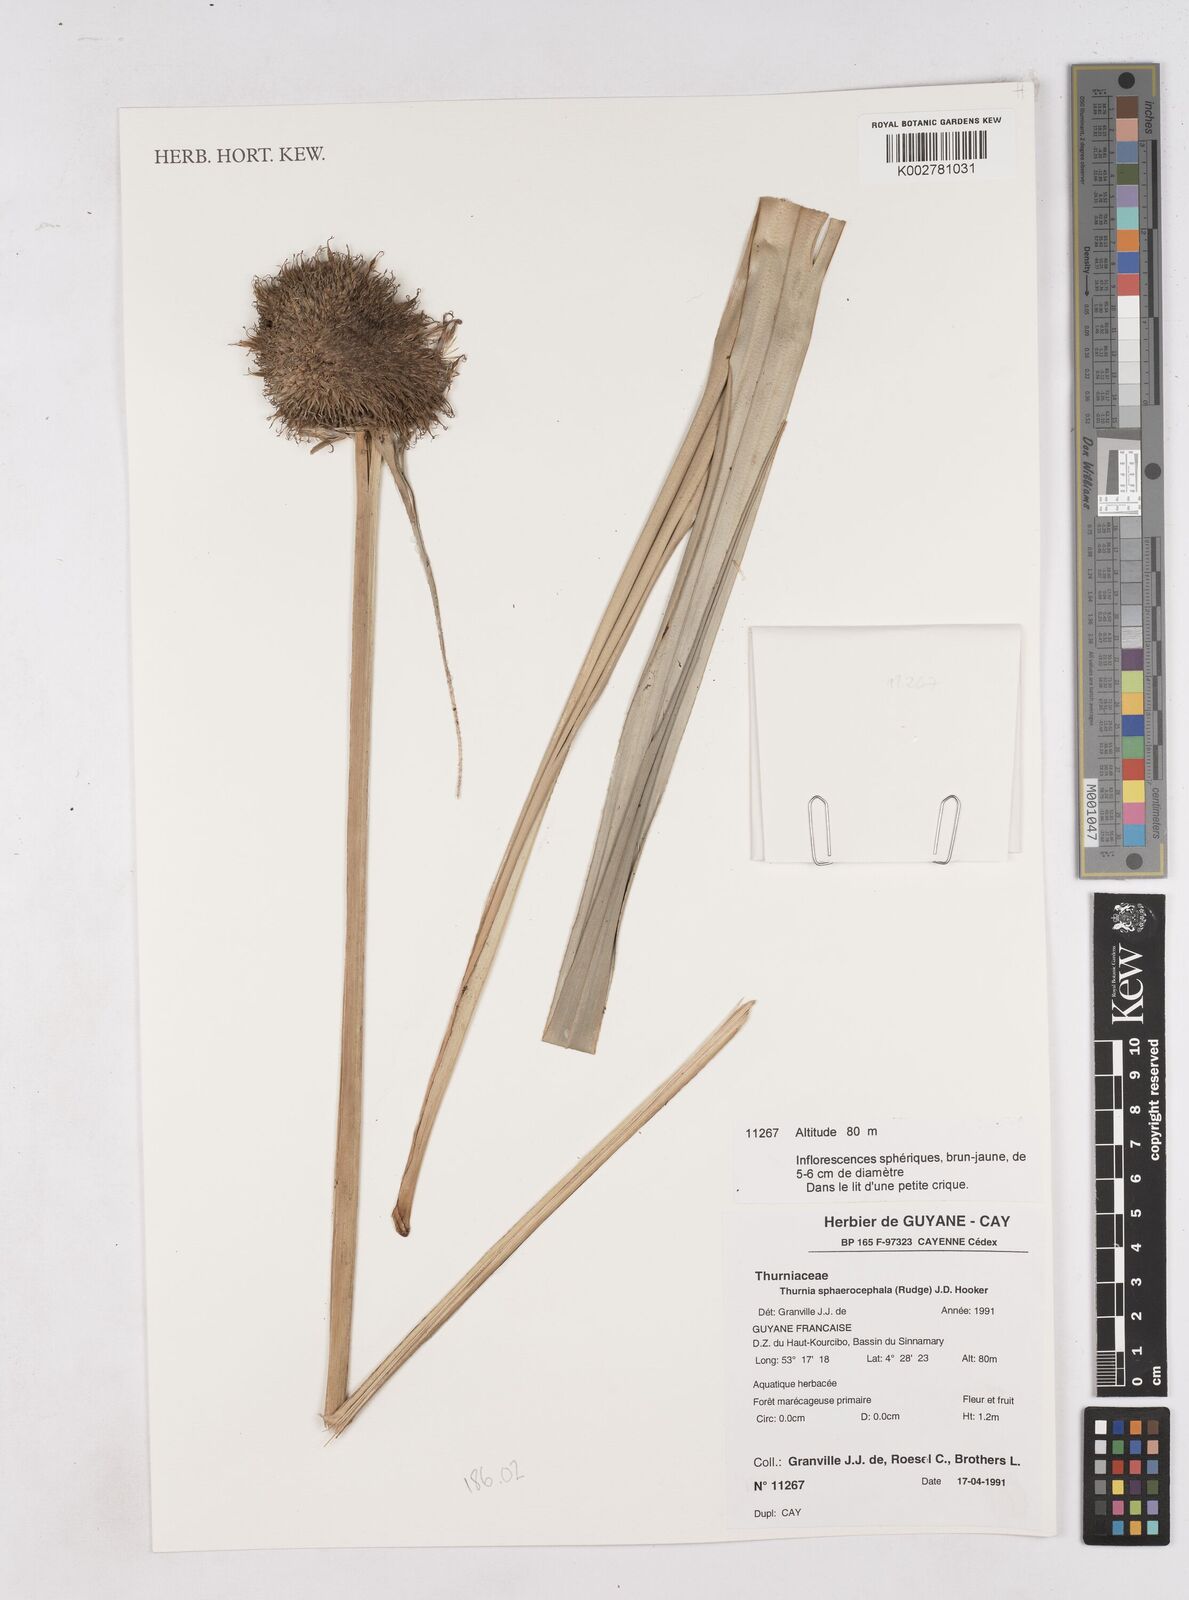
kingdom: Plantae
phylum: Tracheophyta
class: Liliopsida
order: Poales
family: Thurniaceae
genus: Thurnia
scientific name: Thurnia sphaerocephala
